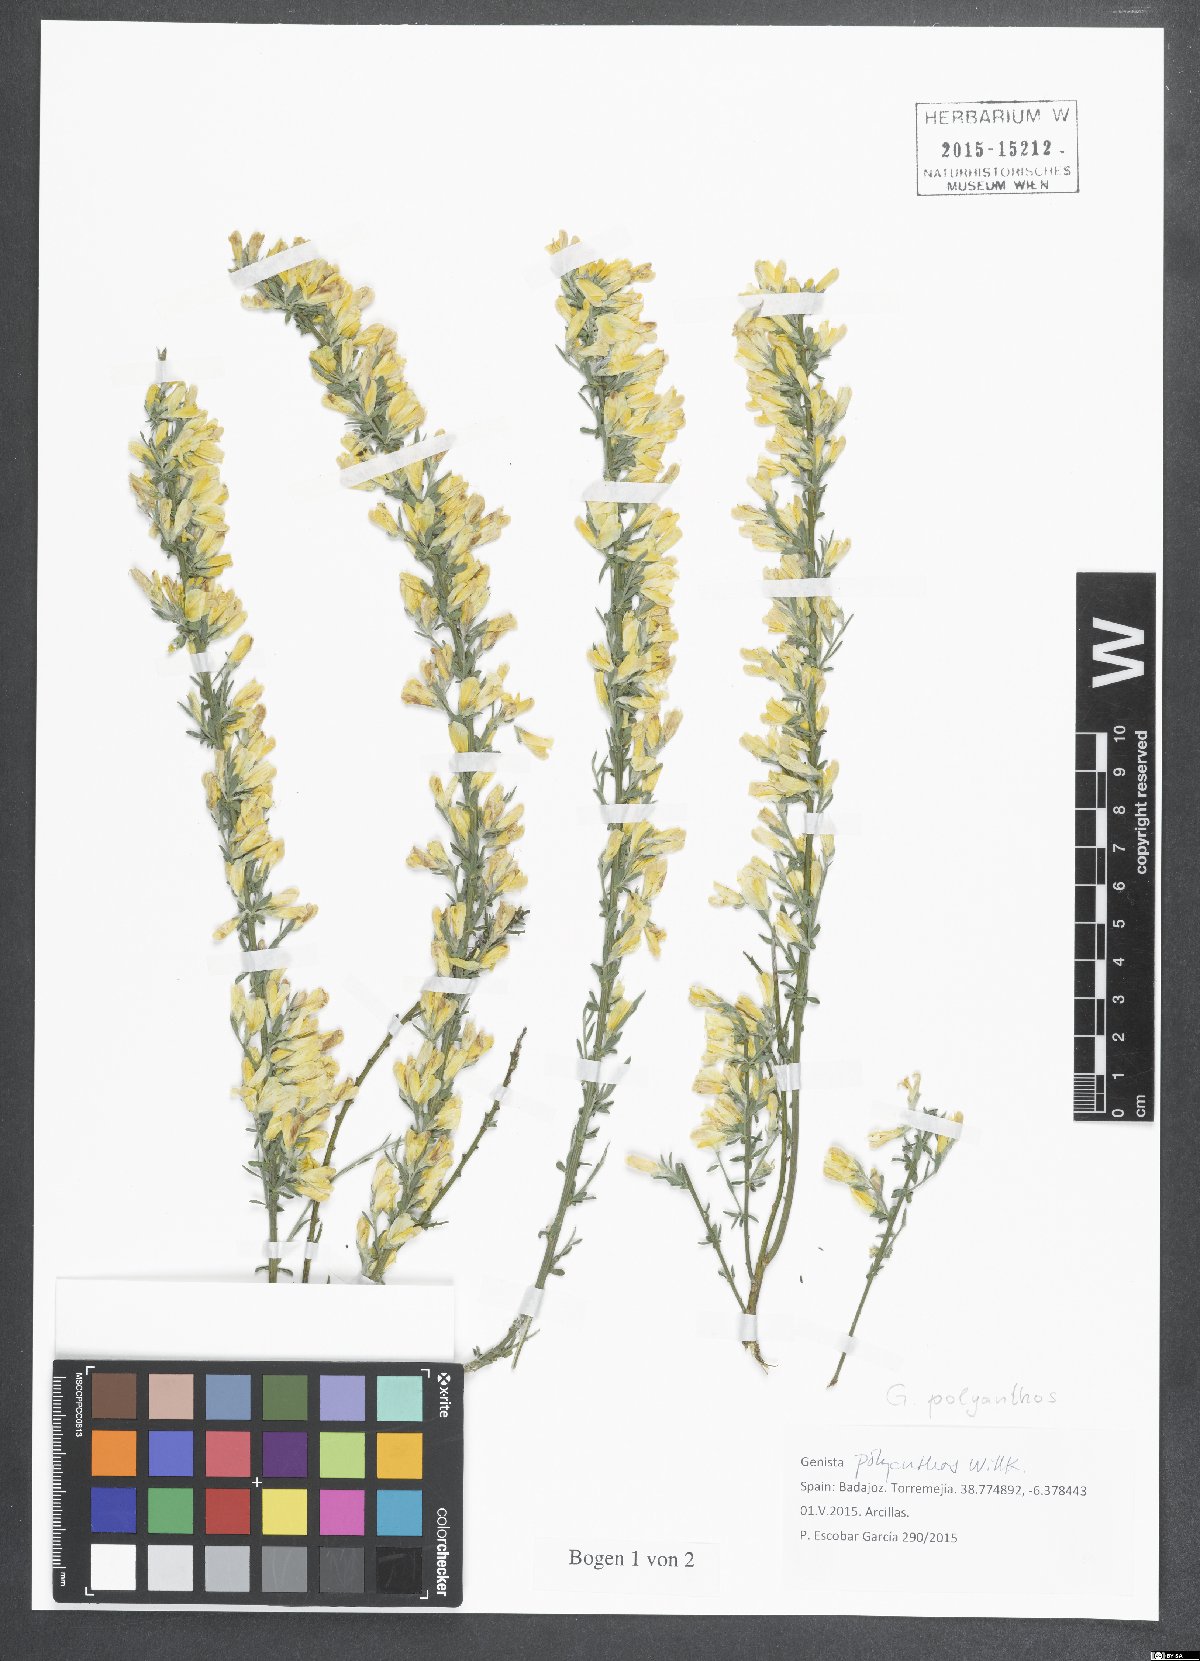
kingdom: Plantae
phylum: Tracheophyta
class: Magnoliopsida
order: Fabales
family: Fabaceae
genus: Genista
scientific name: Genista polyanthos
